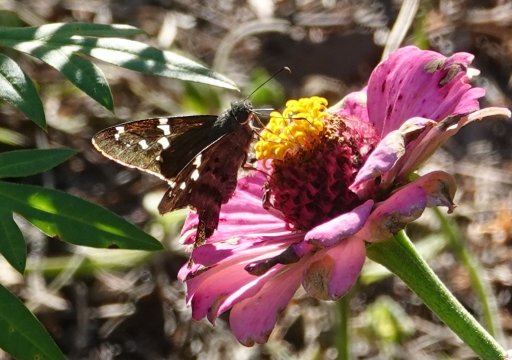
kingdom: Animalia
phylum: Arthropoda
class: Insecta
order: Lepidoptera
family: Hesperiidae
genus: Urbanus
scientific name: Urbanus proteus
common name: Long-tailed Skipper
